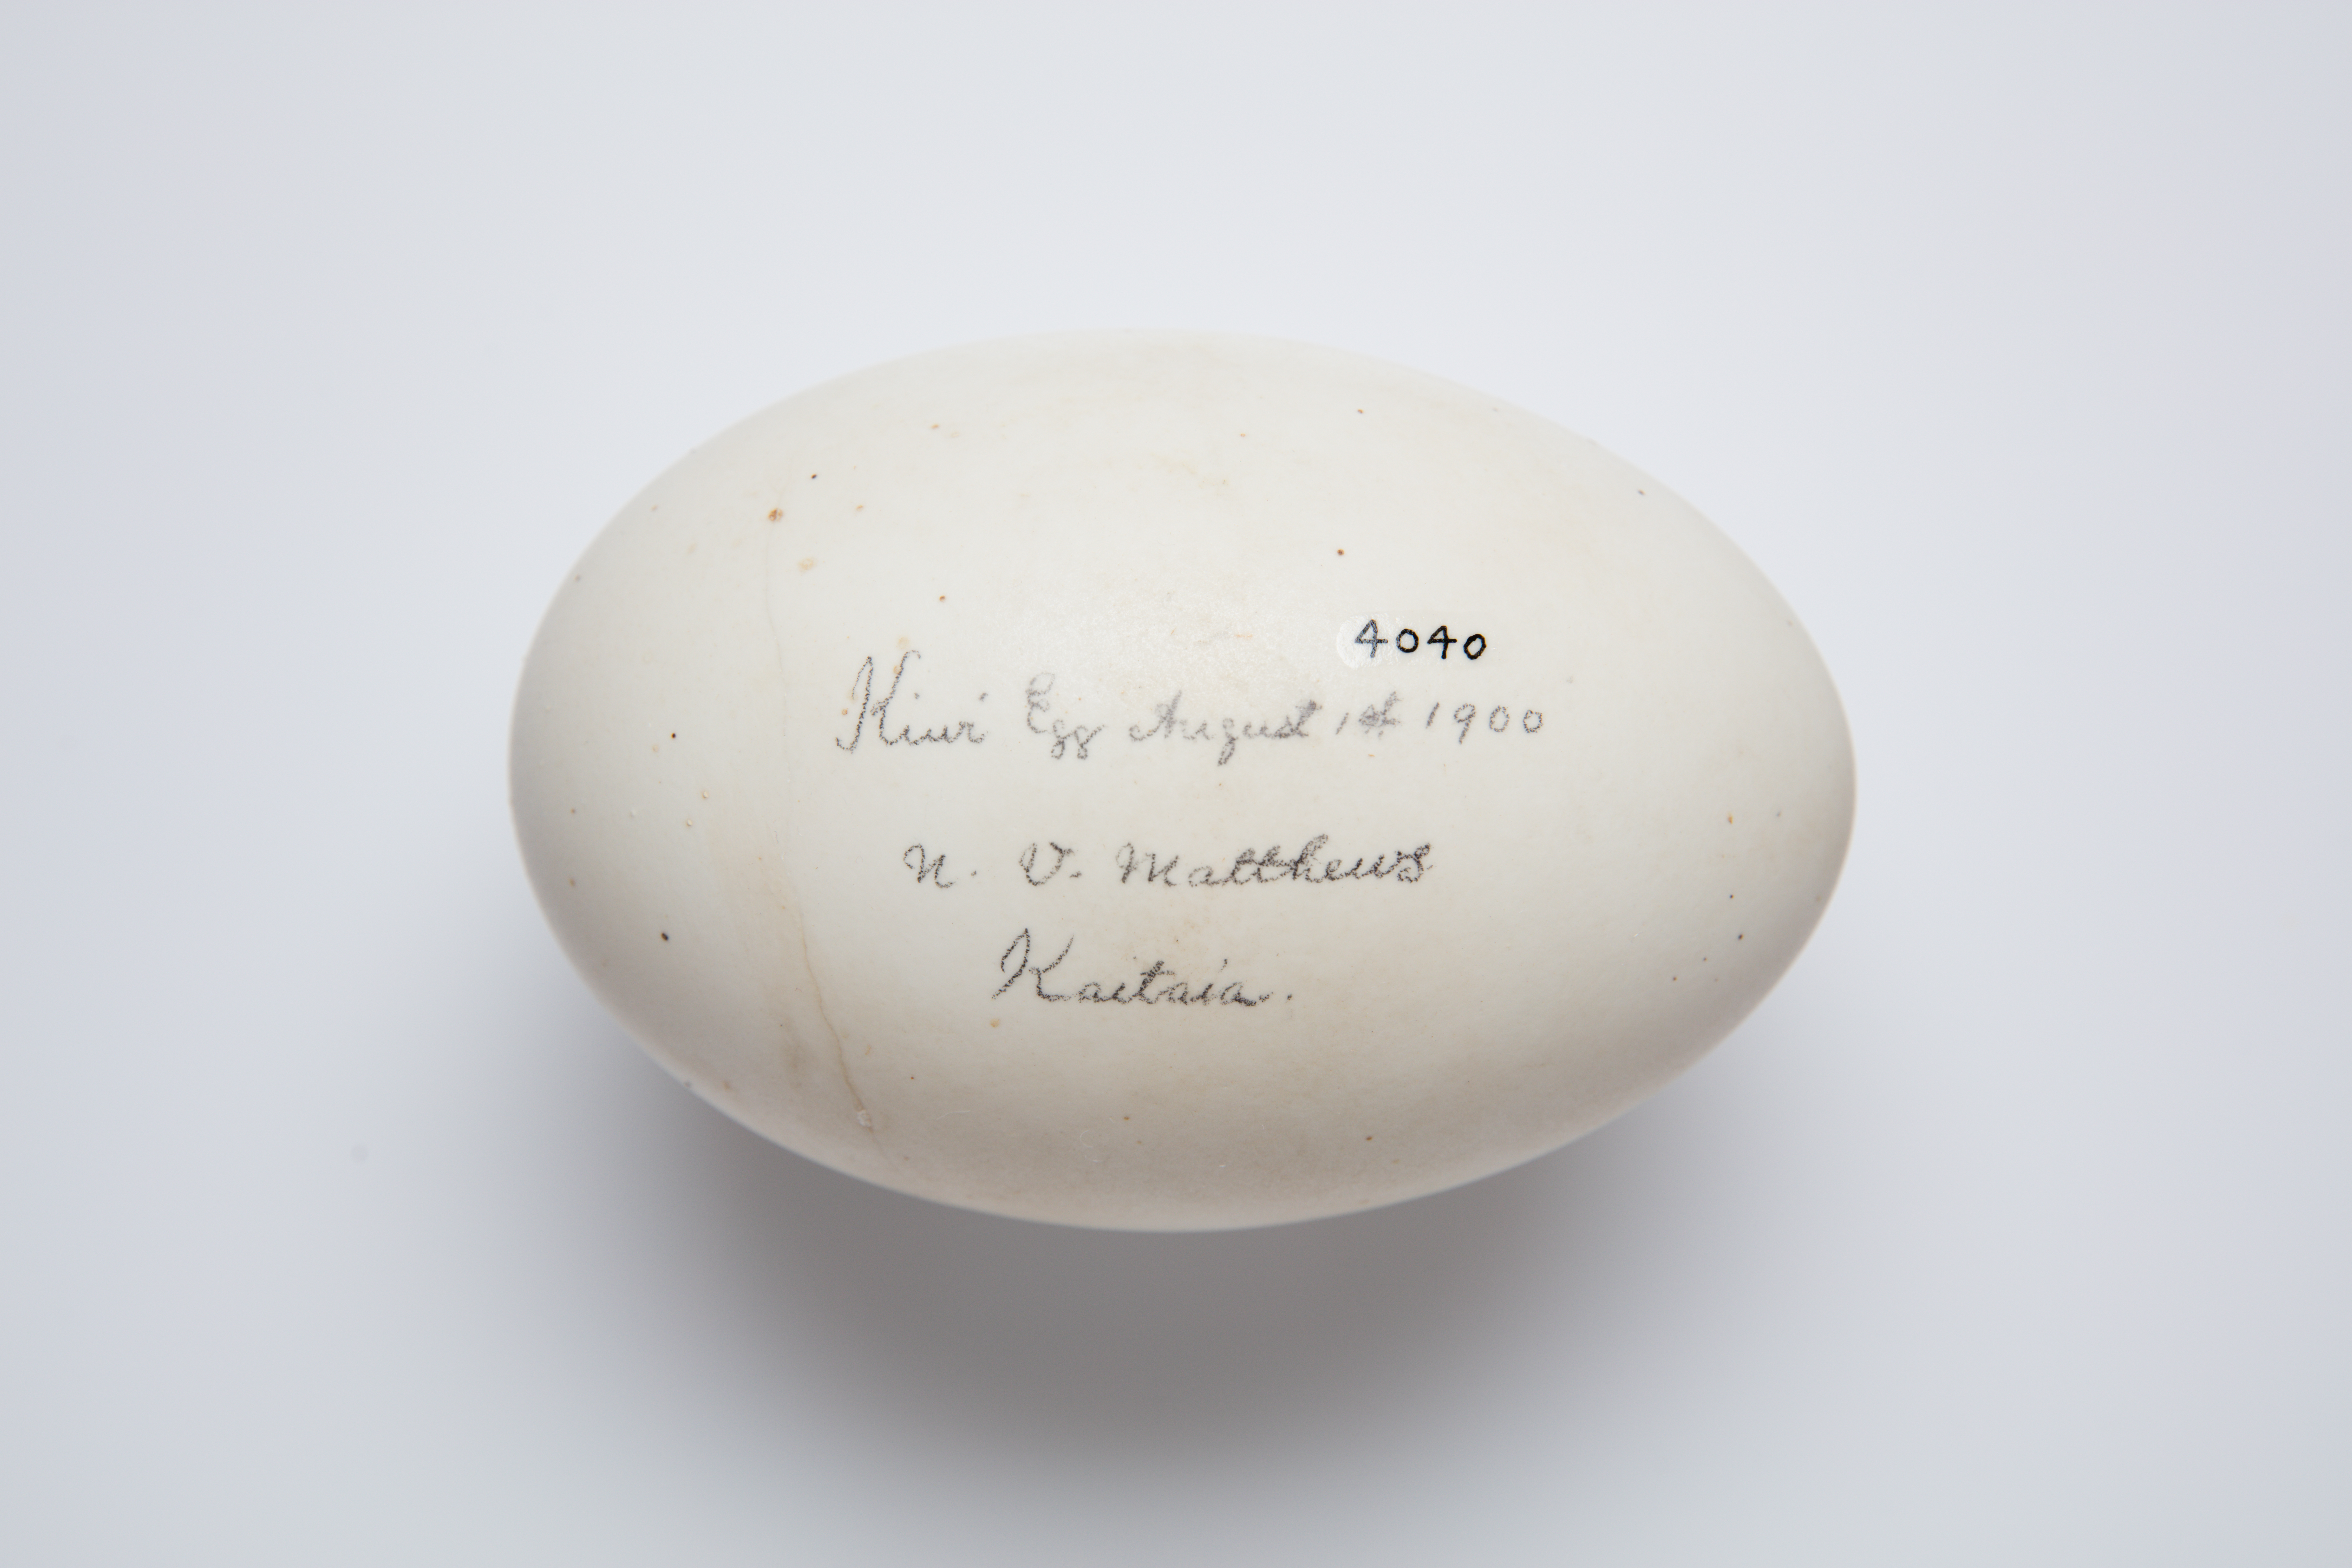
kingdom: Animalia
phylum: Chordata
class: Aves
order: Apterygiformes
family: Apterygidae
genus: Apteryx
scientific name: Apteryx
